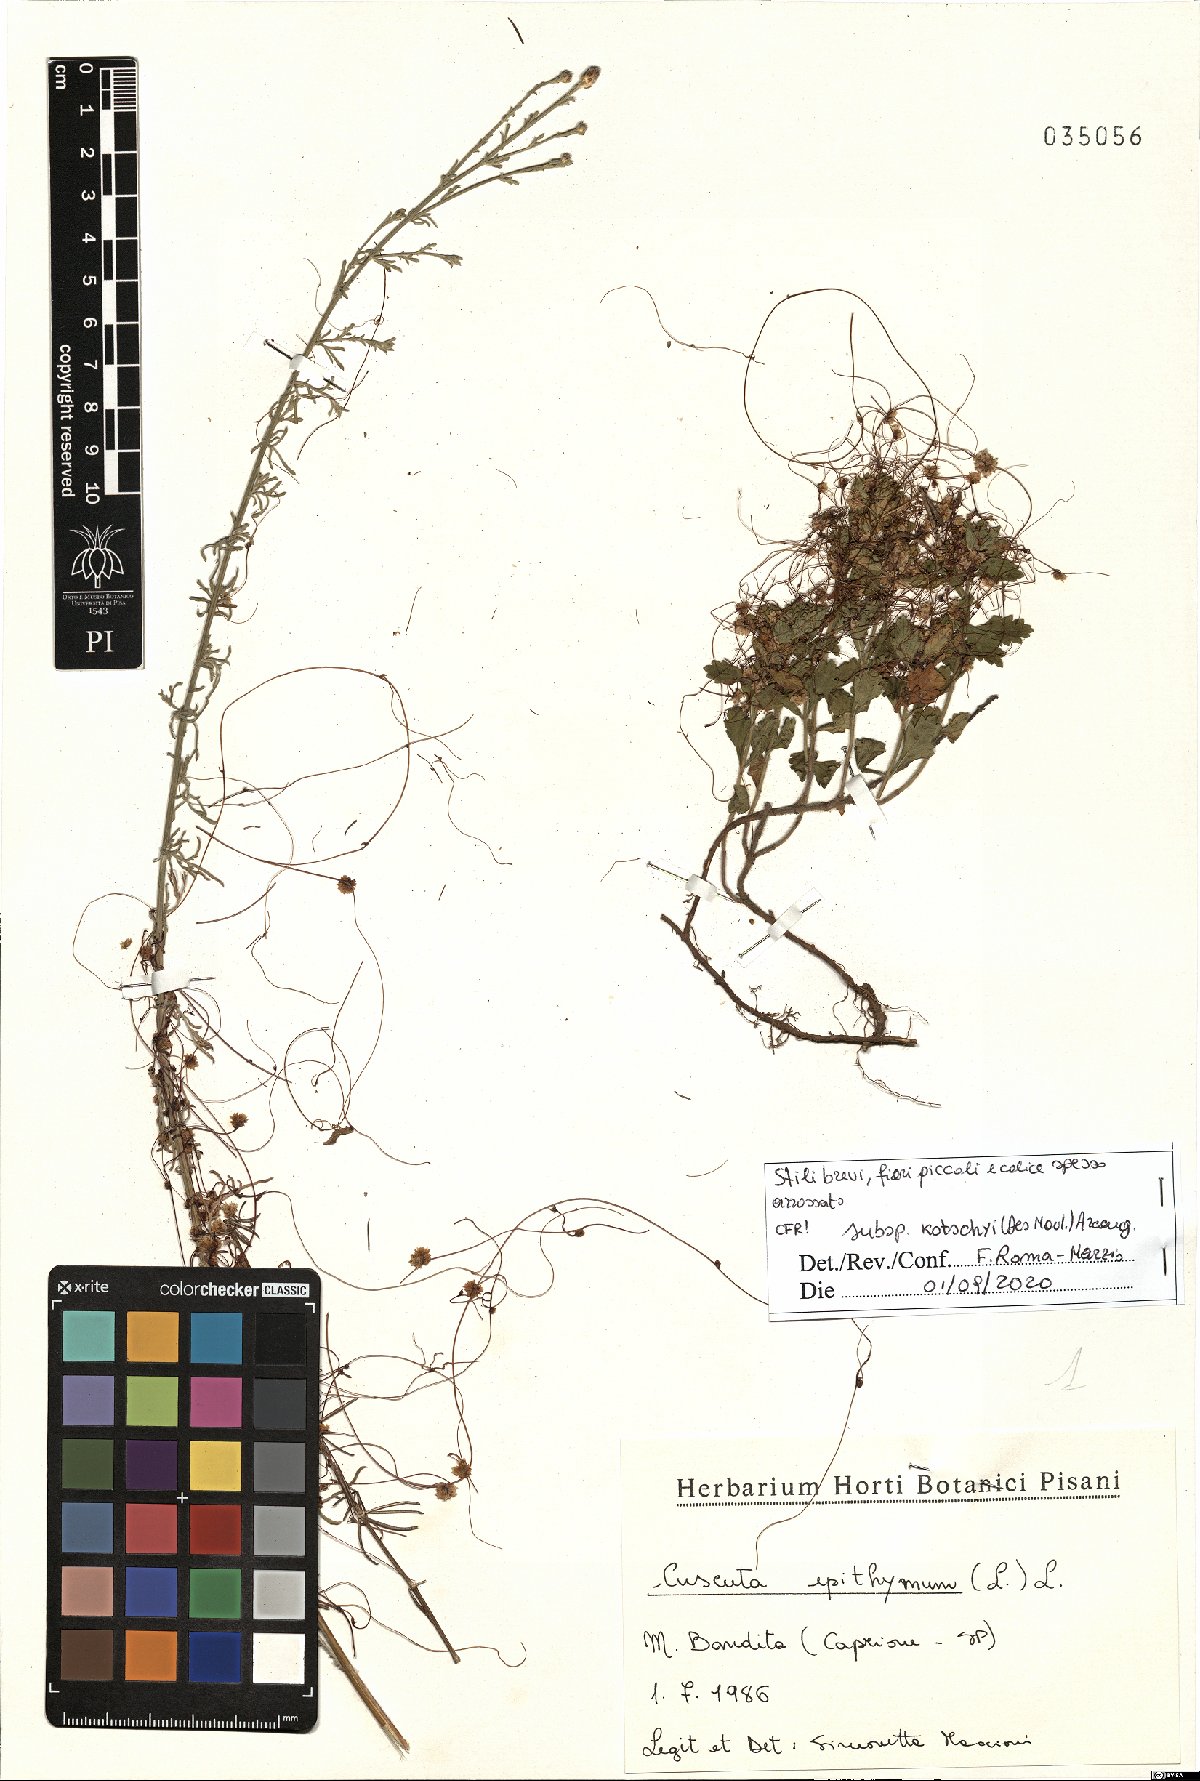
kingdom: Plantae
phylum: Tracheophyta
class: Magnoliopsida
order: Solanales
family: Convolvulaceae
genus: Cuscuta
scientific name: Cuscuta epithymum
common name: Clover dodder
